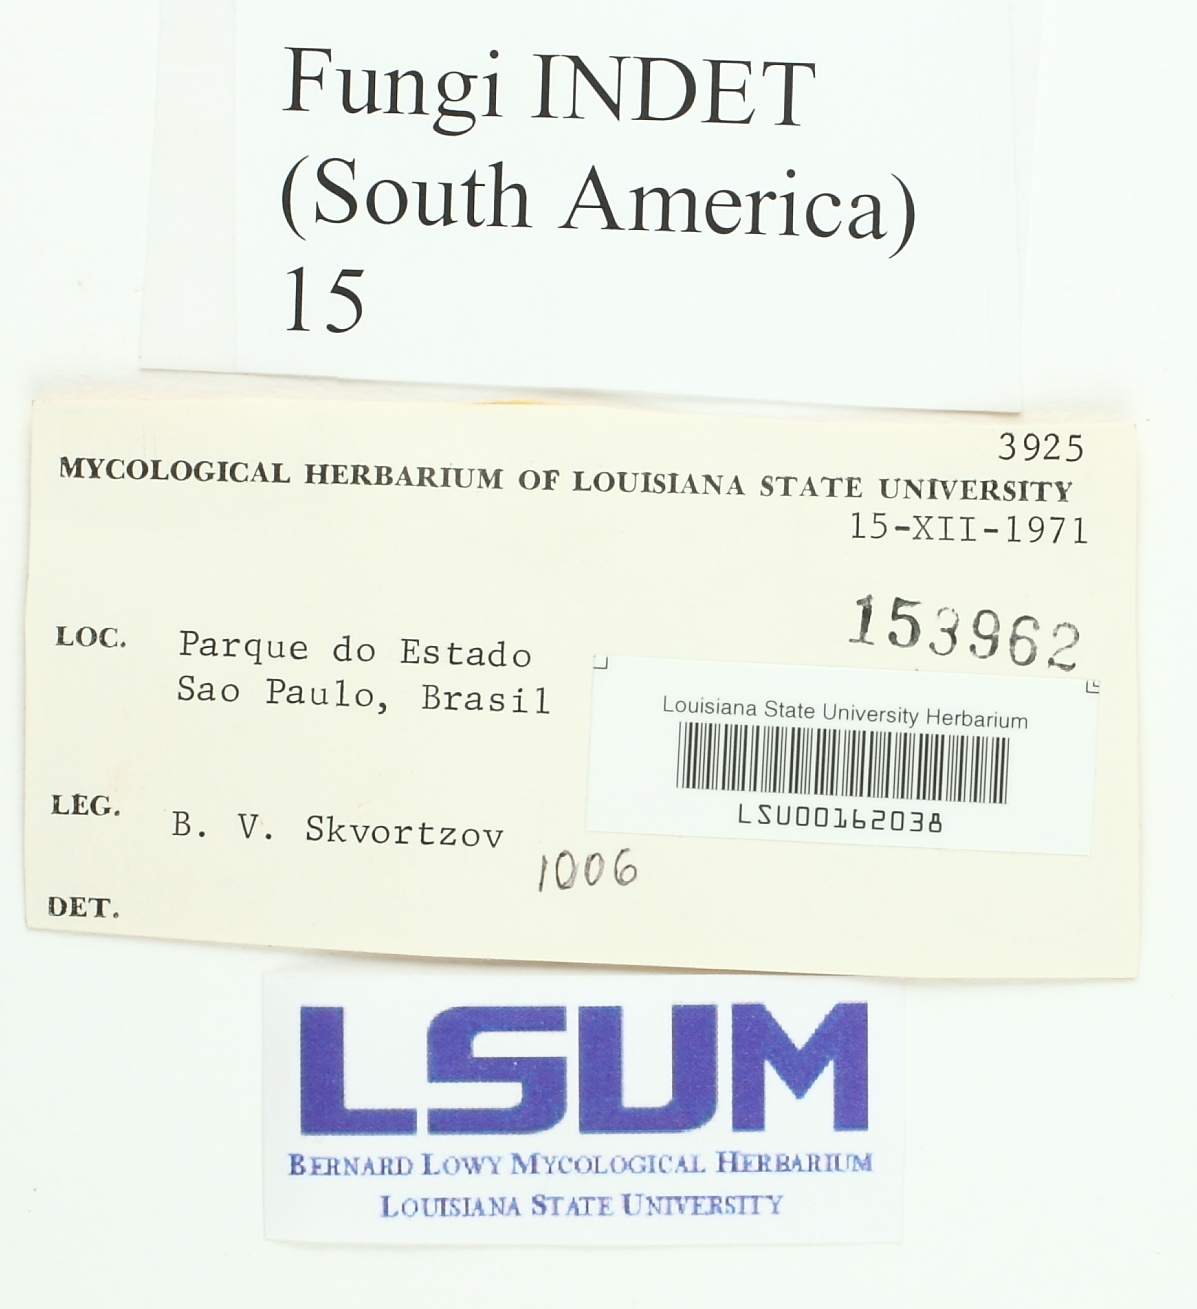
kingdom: Fungi
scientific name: Fungi
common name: Fungi
